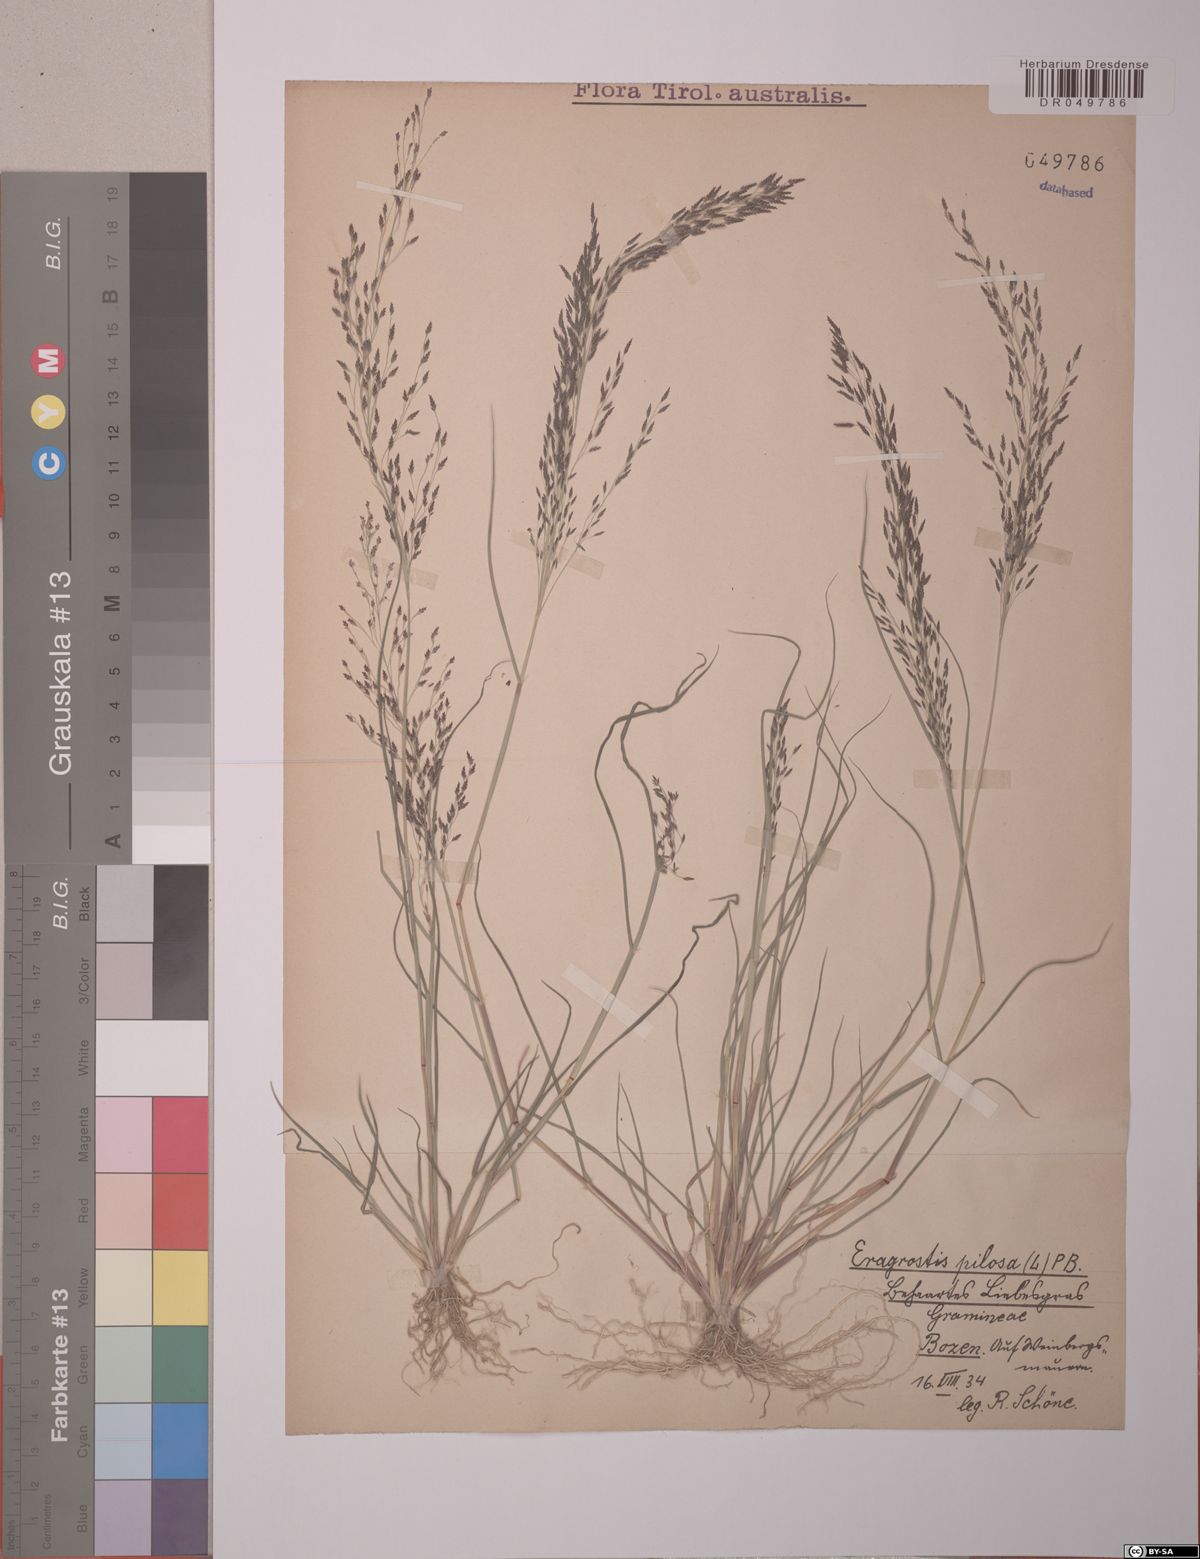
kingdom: Plantae
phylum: Tracheophyta
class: Liliopsida
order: Poales
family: Poaceae
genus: Eragrostis
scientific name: Eragrostis pilosa
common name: Indian lovegrass
